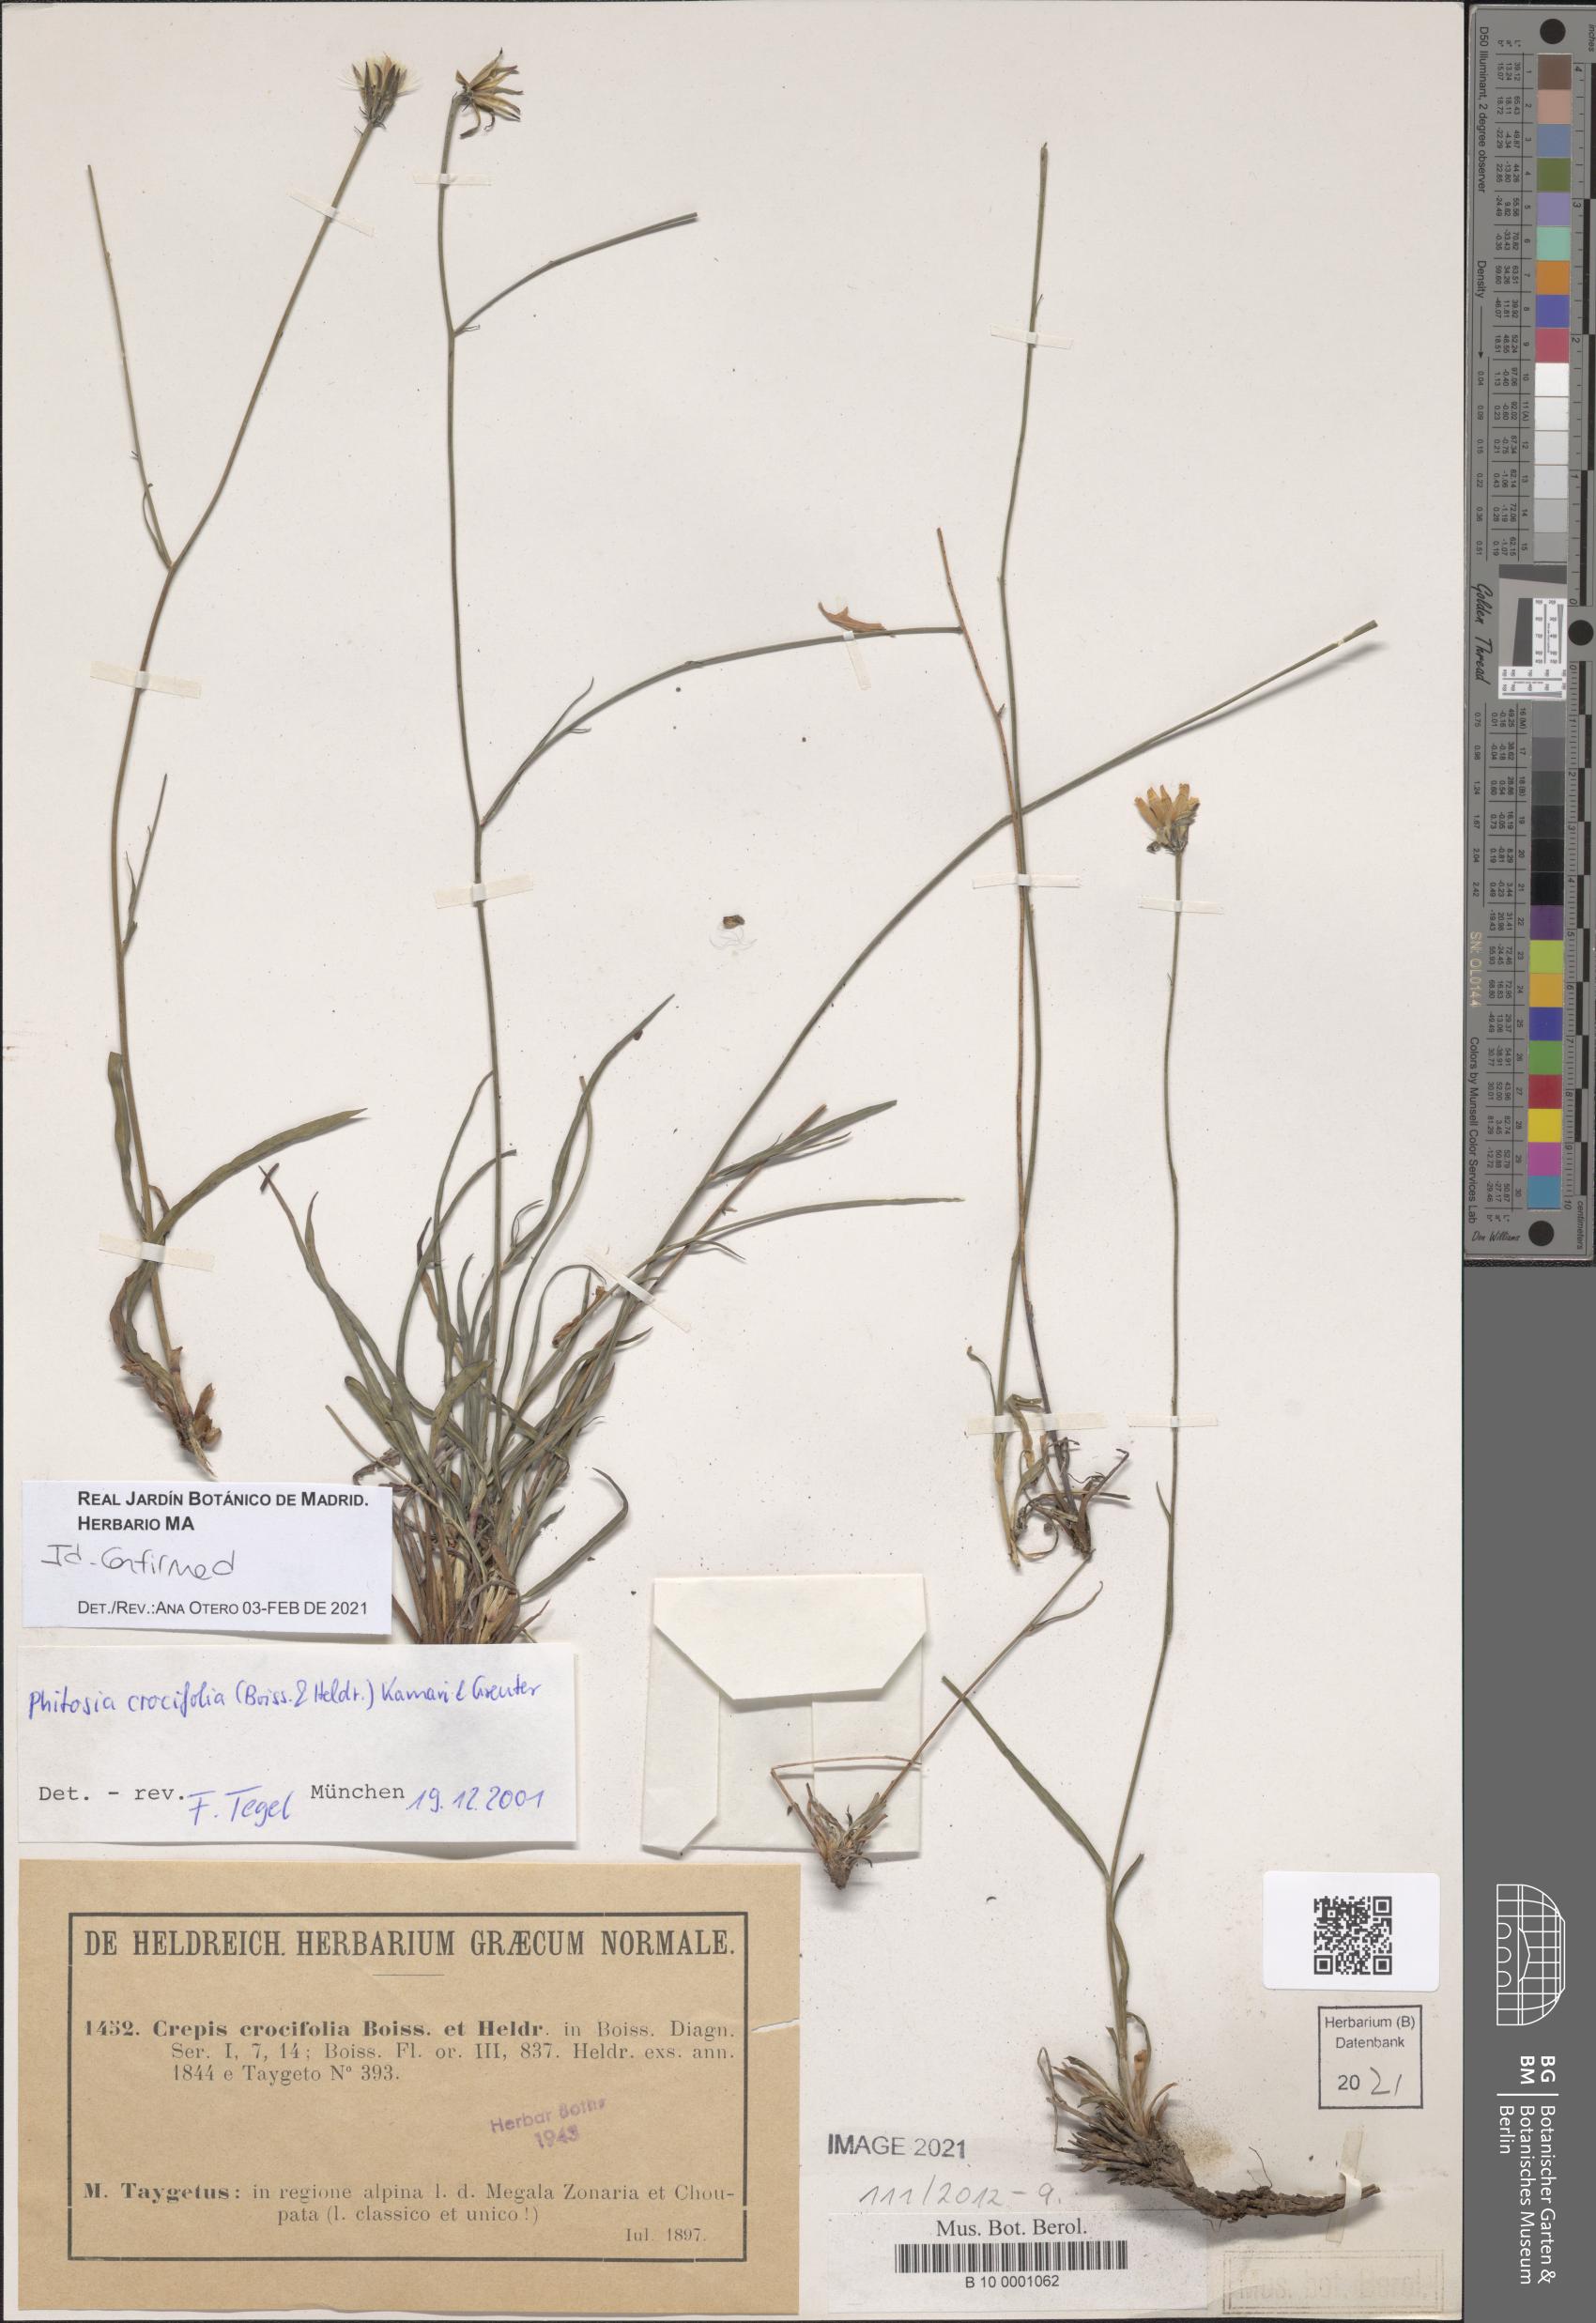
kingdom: Plantae
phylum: Tracheophyta
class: Magnoliopsida
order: Asterales
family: Asteraceae
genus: Phitosia
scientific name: Phitosia crocifolia
